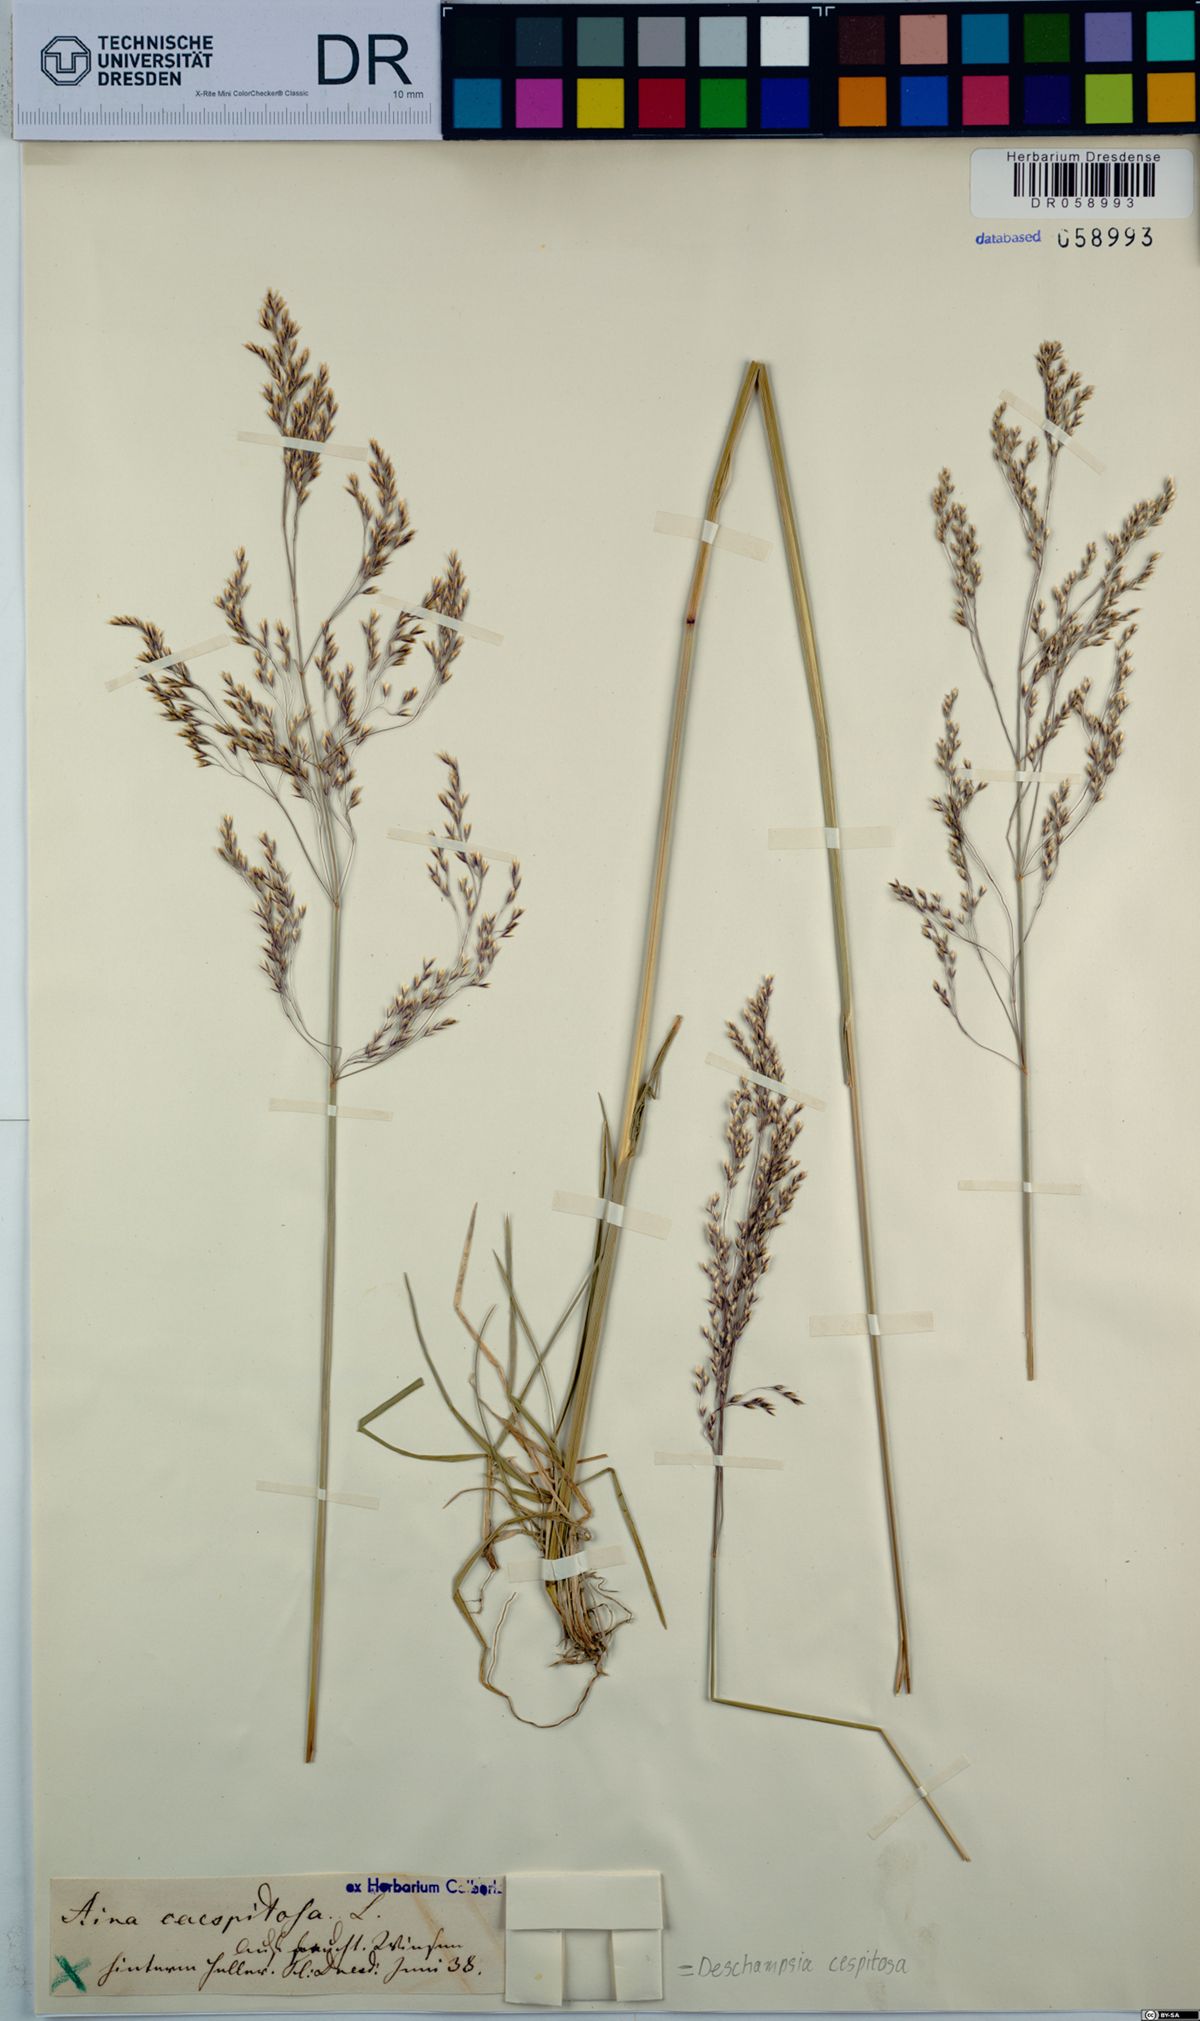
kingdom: Plantae
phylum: Tracheophyta
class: Liliopsida
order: Poales
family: Poaceae
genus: Deschampsia
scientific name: Deschampsia cespitosa
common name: Tufted hair-grass
